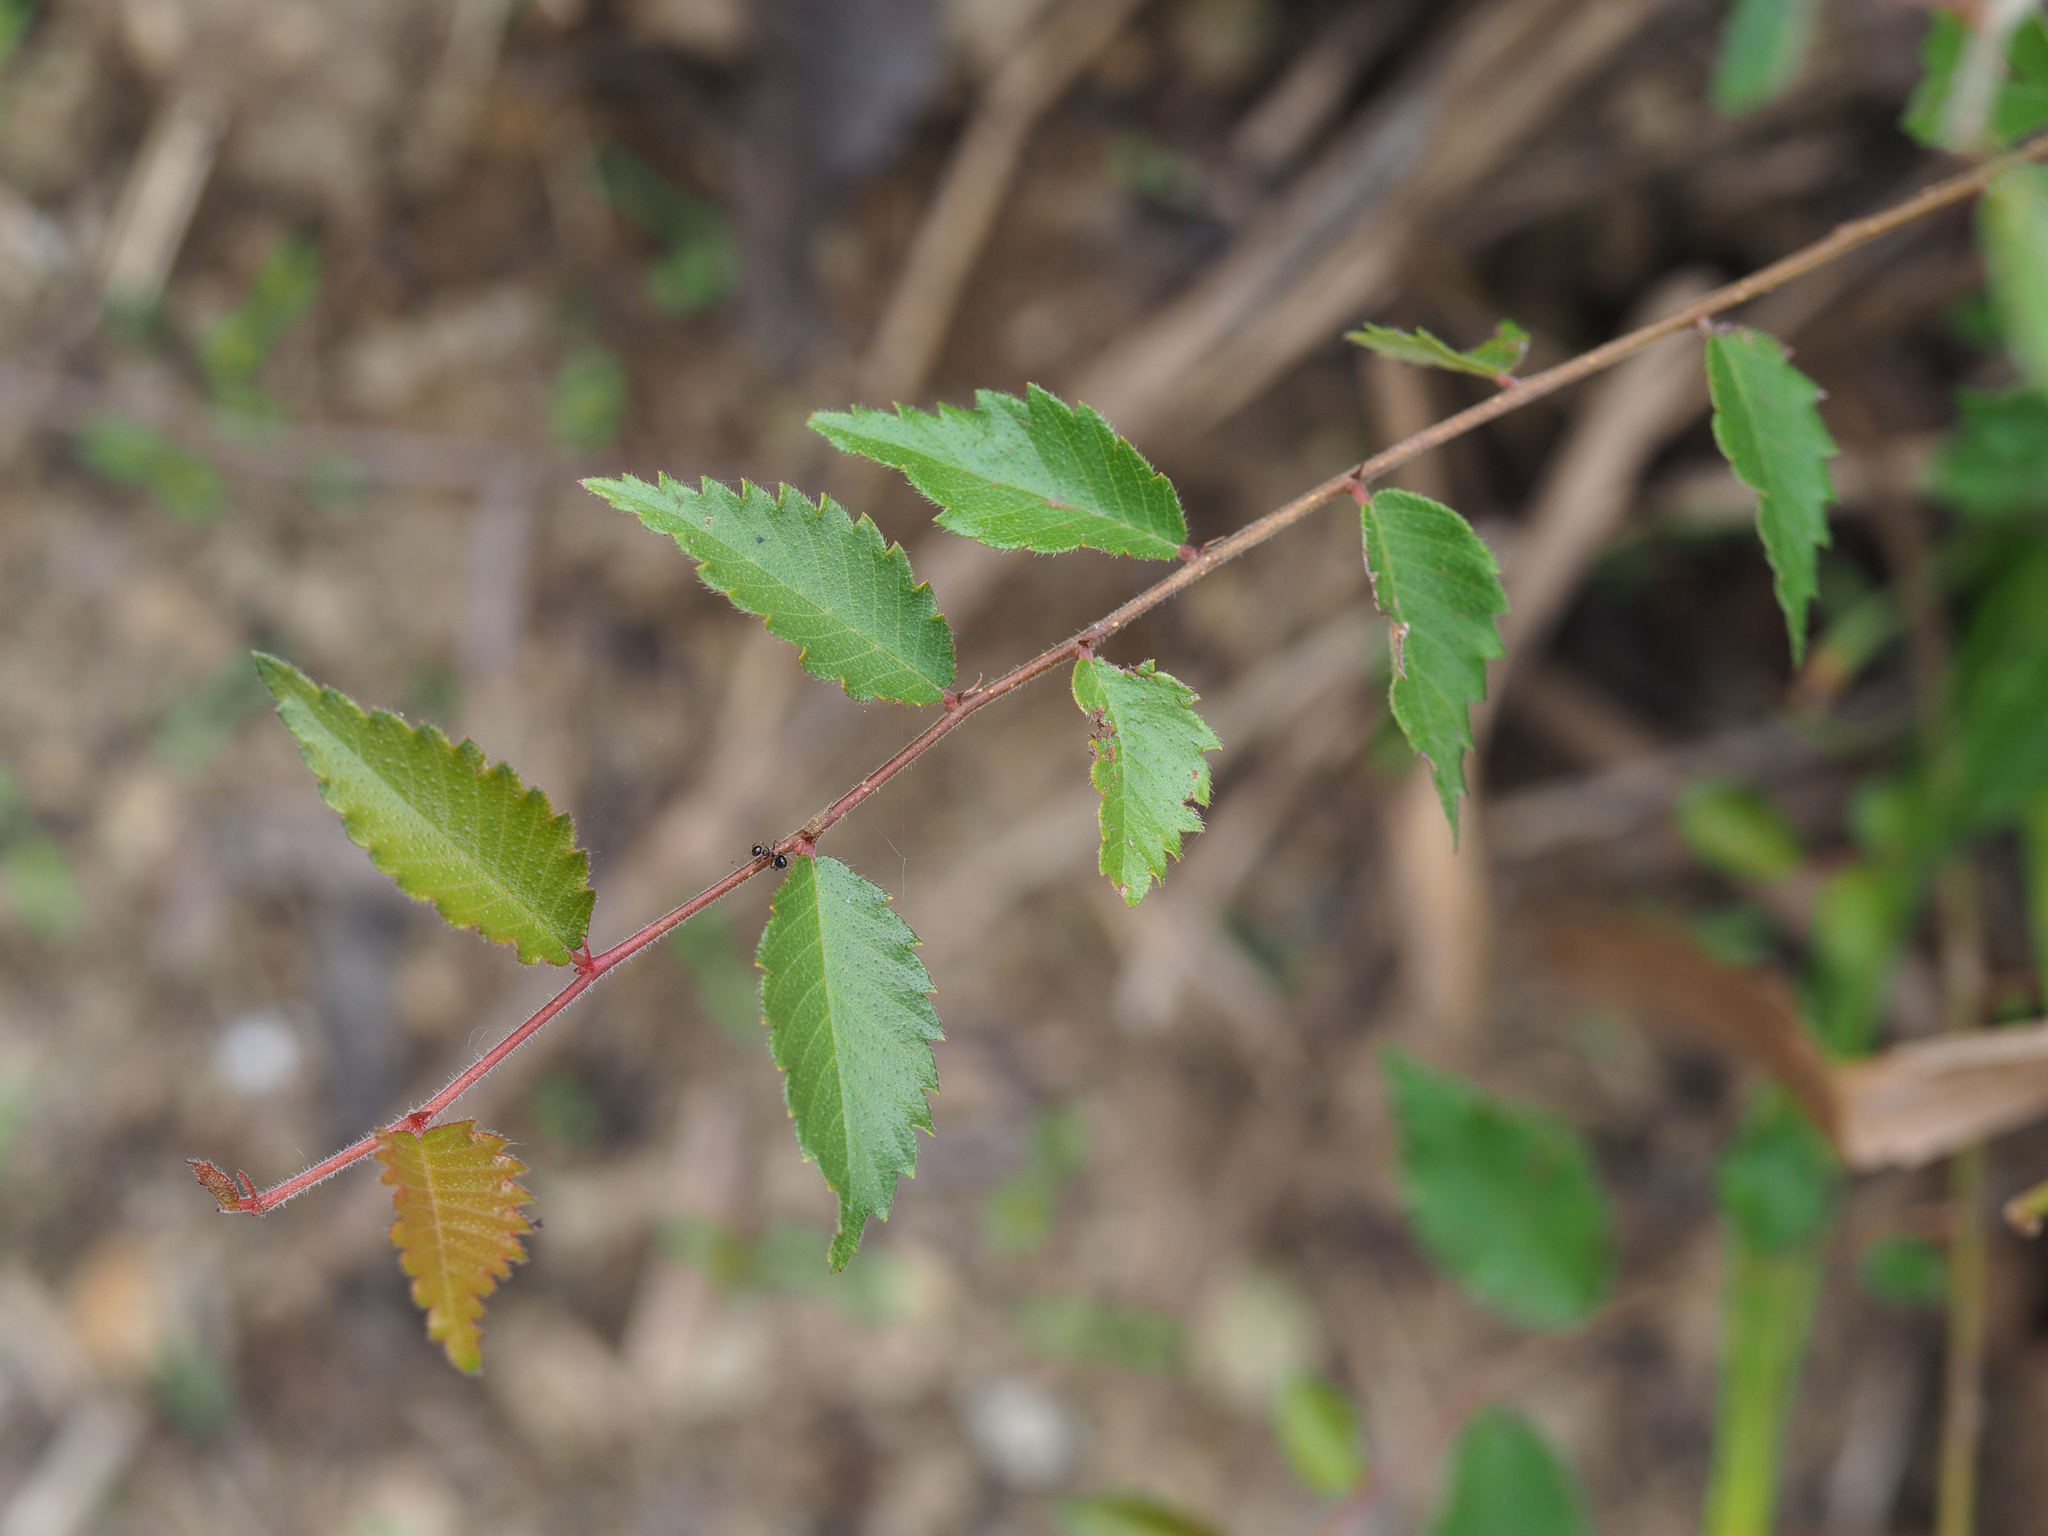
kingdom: Plantae
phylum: Tracheophyta
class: Magnoliopsida
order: Rosales
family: Ulmaceae
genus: Zelkova
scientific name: Zelkova serrata
